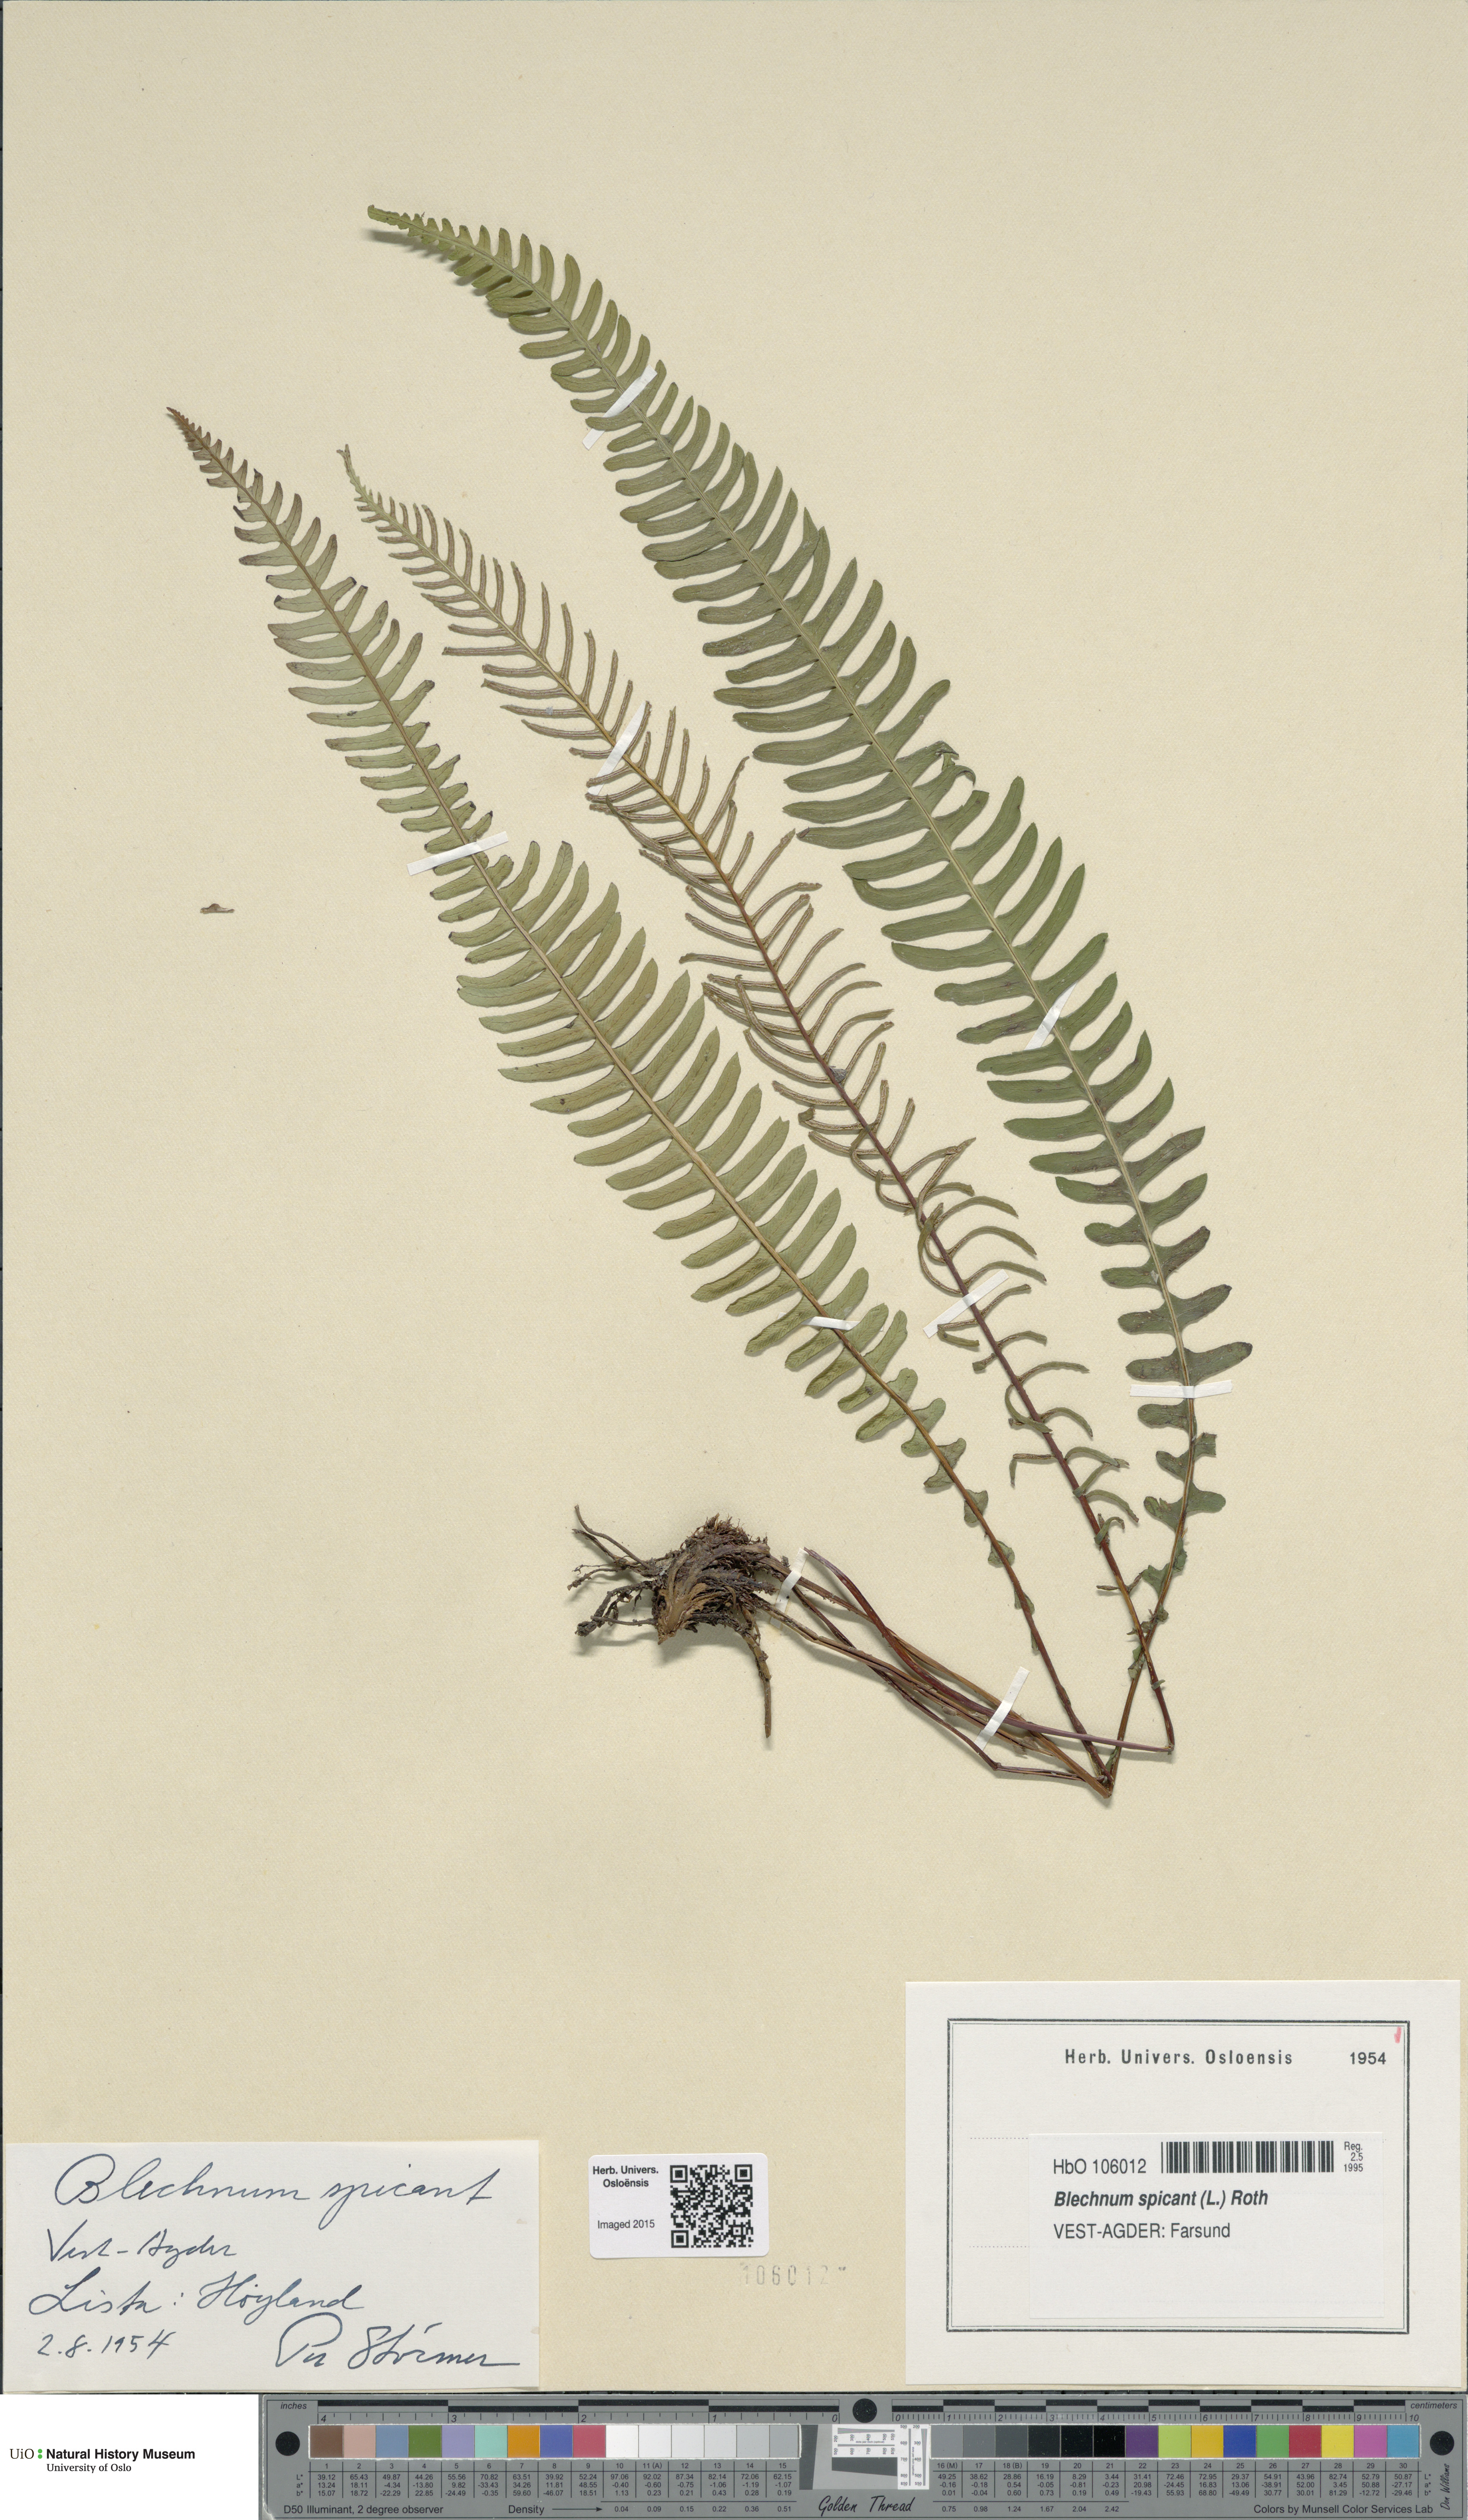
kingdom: Plantae
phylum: Tracheophyta
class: Polypodiopsida
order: Polypodiales
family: Blechnaceae
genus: Struthiopteris
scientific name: Struthiopteris spicant
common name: Deer fern
